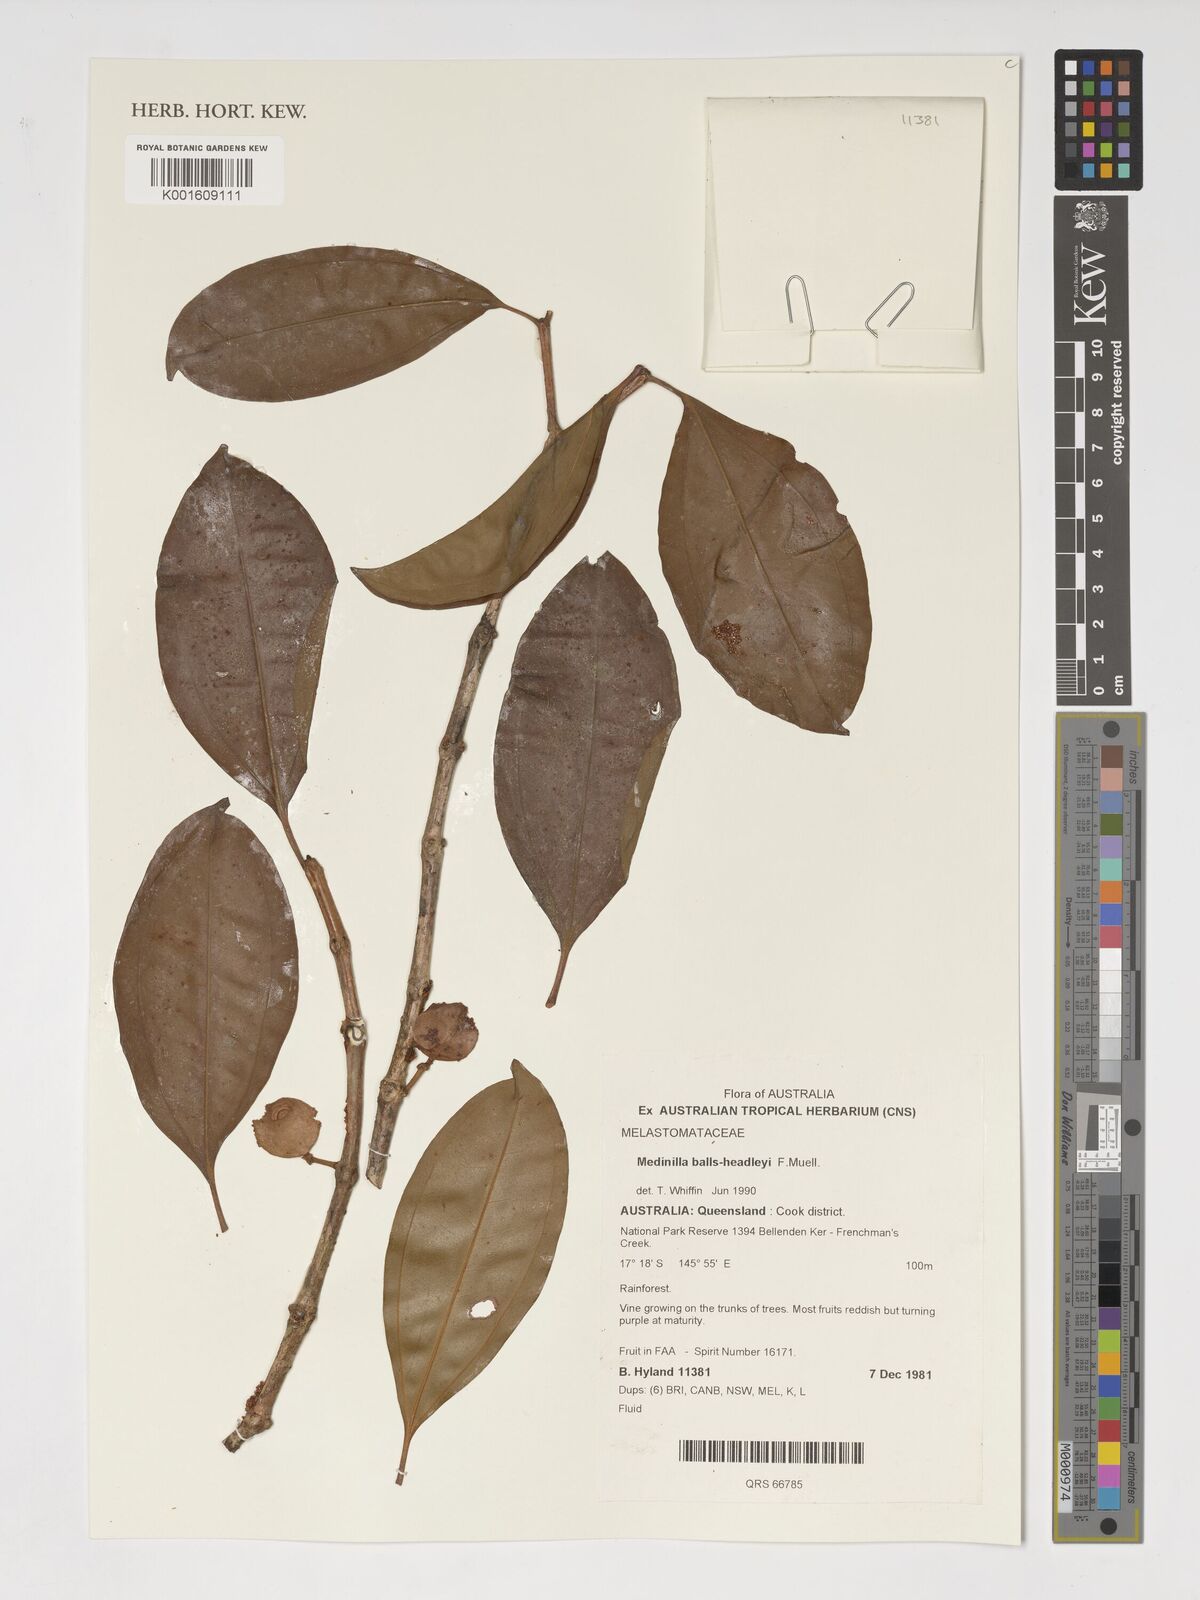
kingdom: Plantae
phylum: Tracheophyta
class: Magnoliopsida
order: Myrtales
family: Melastomataceae
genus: Medinilla
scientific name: Medinilla balls-headleyi
